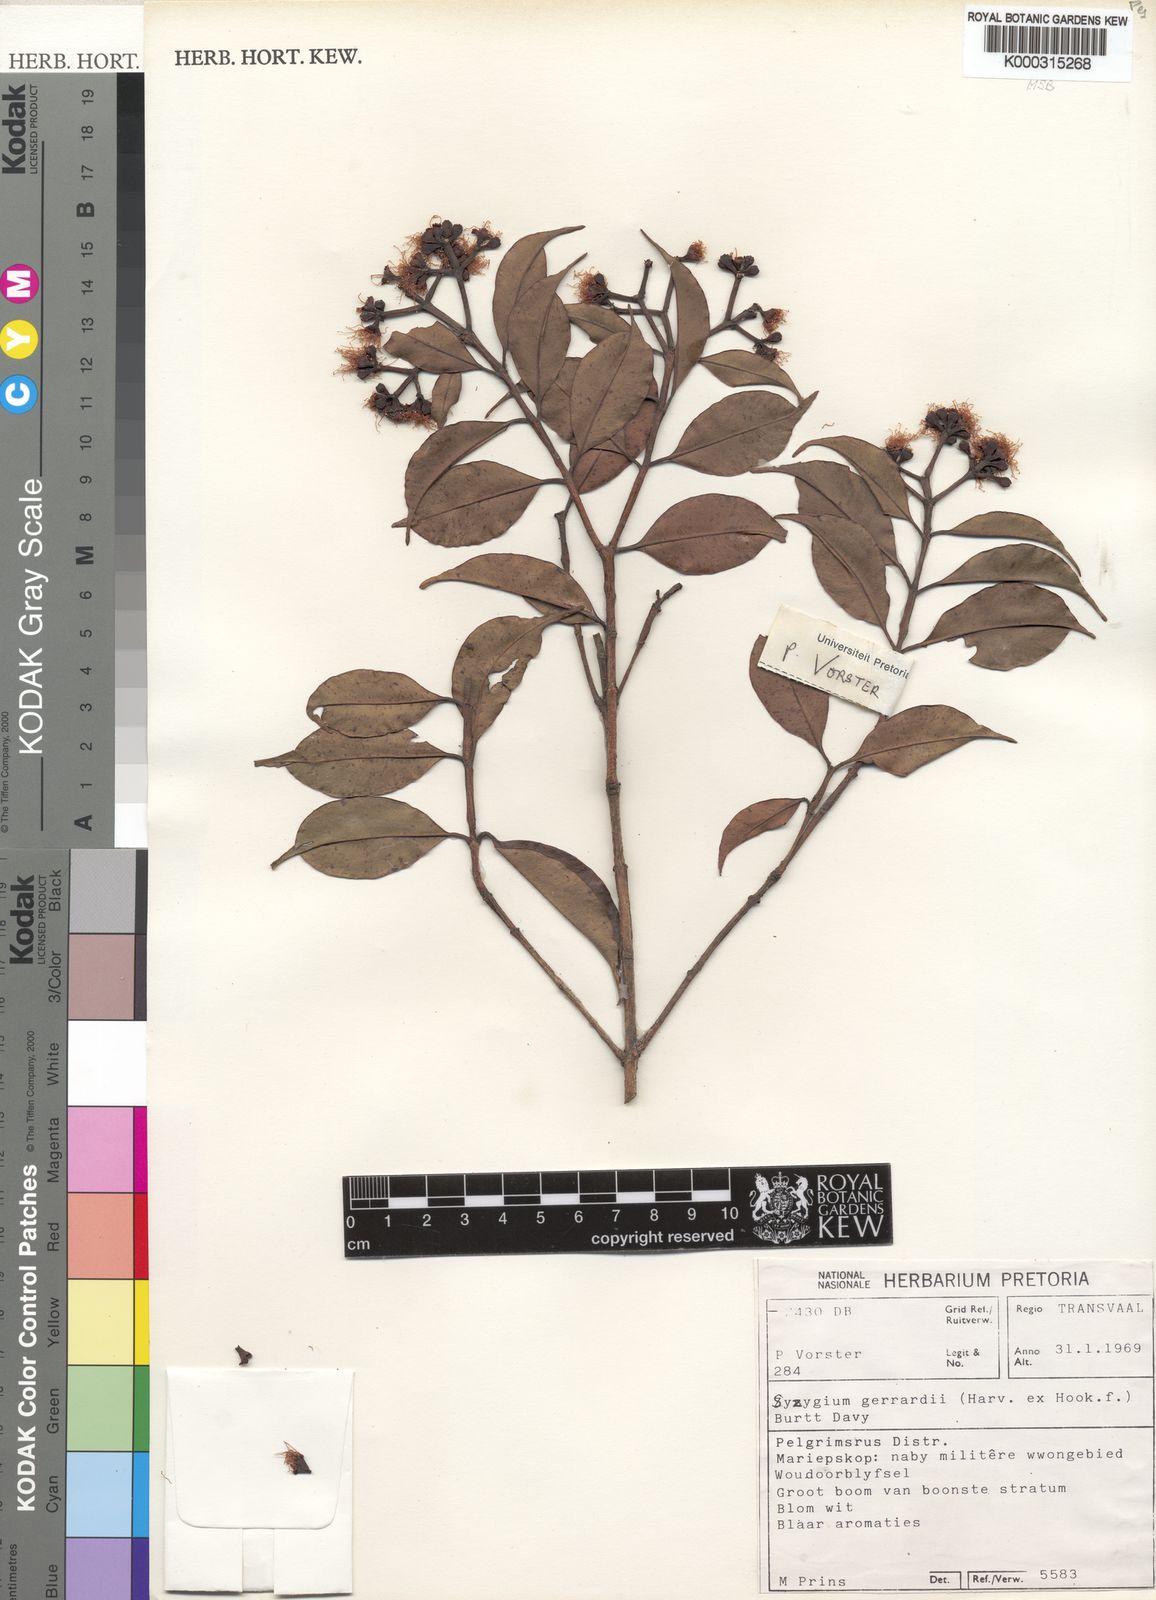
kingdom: Plantae
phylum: Tracheophyta
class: Magnoliopsida
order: Myrtales
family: Myrtaceae
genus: Syzygium
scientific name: Syzygium gerrardii
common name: Forest waterberry
